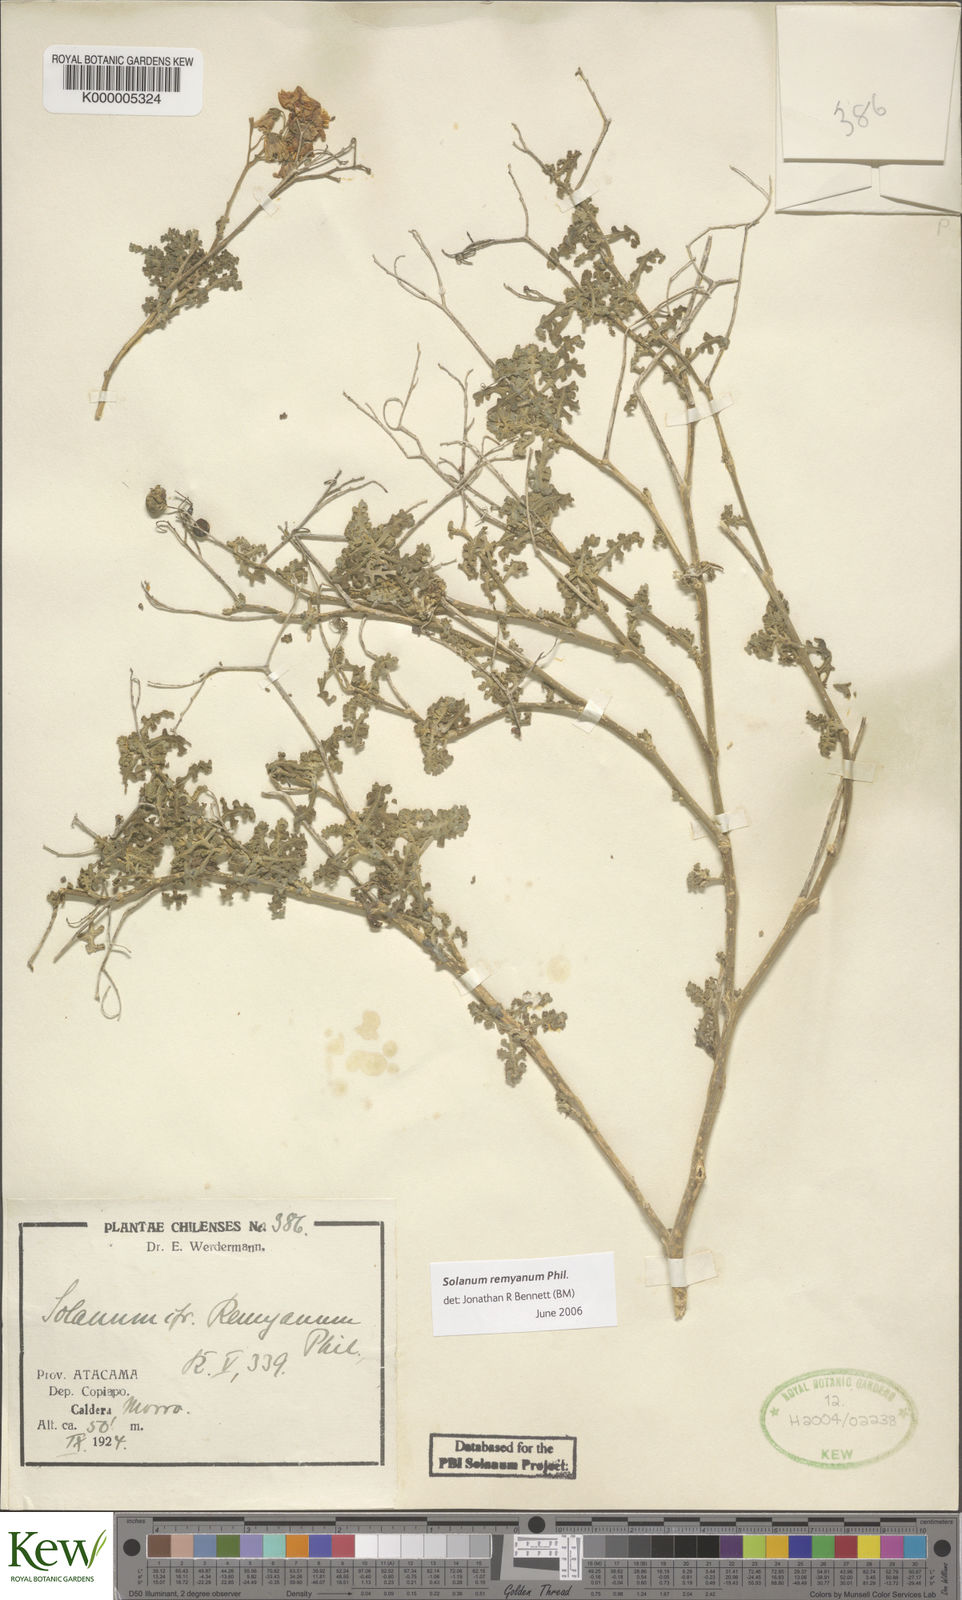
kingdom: Plantae
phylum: Tracheophyta
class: Magnoliopsida
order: Solanales
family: Solanaceae
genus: Solanum
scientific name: Solanum remyanum
